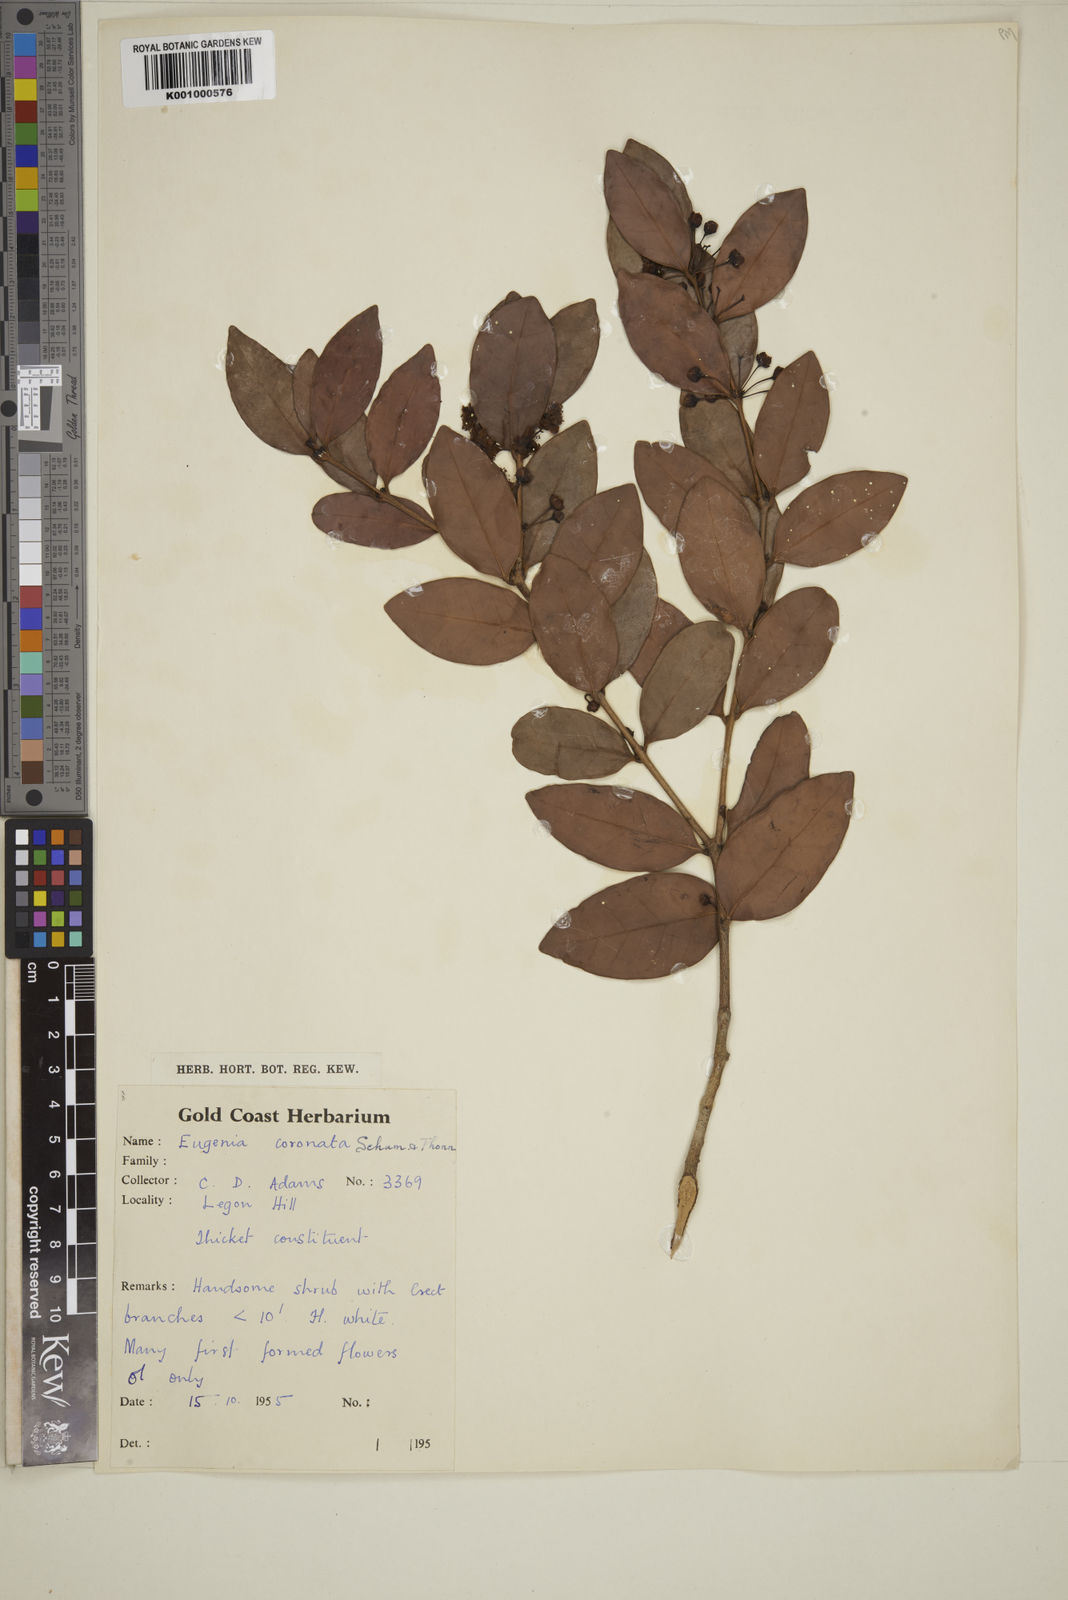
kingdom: Plantae
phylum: Tracheophyta
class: Magnoliopsida
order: Myrtales
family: Myrtaceae
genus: Eugenia
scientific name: Eugenia coronata
